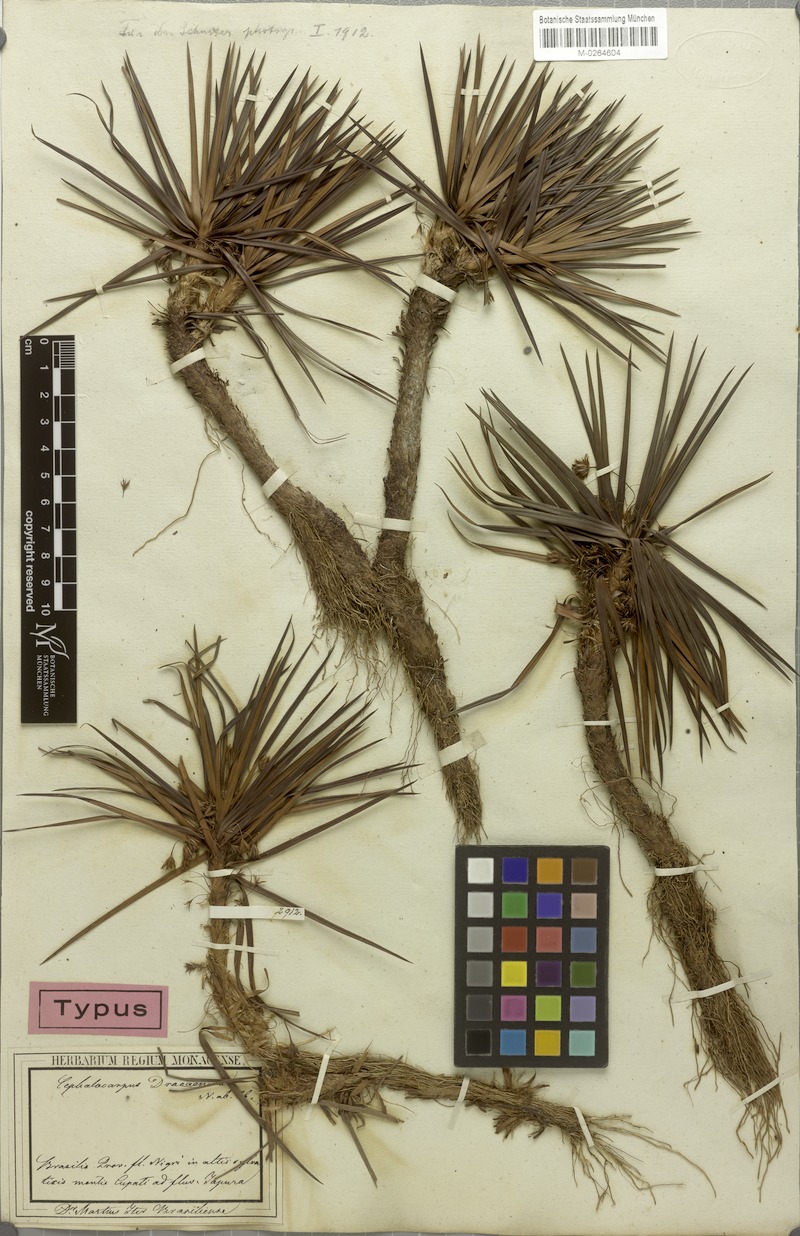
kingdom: Plantae
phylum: Tracheophyta
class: Liliopsida
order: Poales
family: Cyperaceae
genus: Cephalocarpus
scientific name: Cephalocarpus dracaenula
